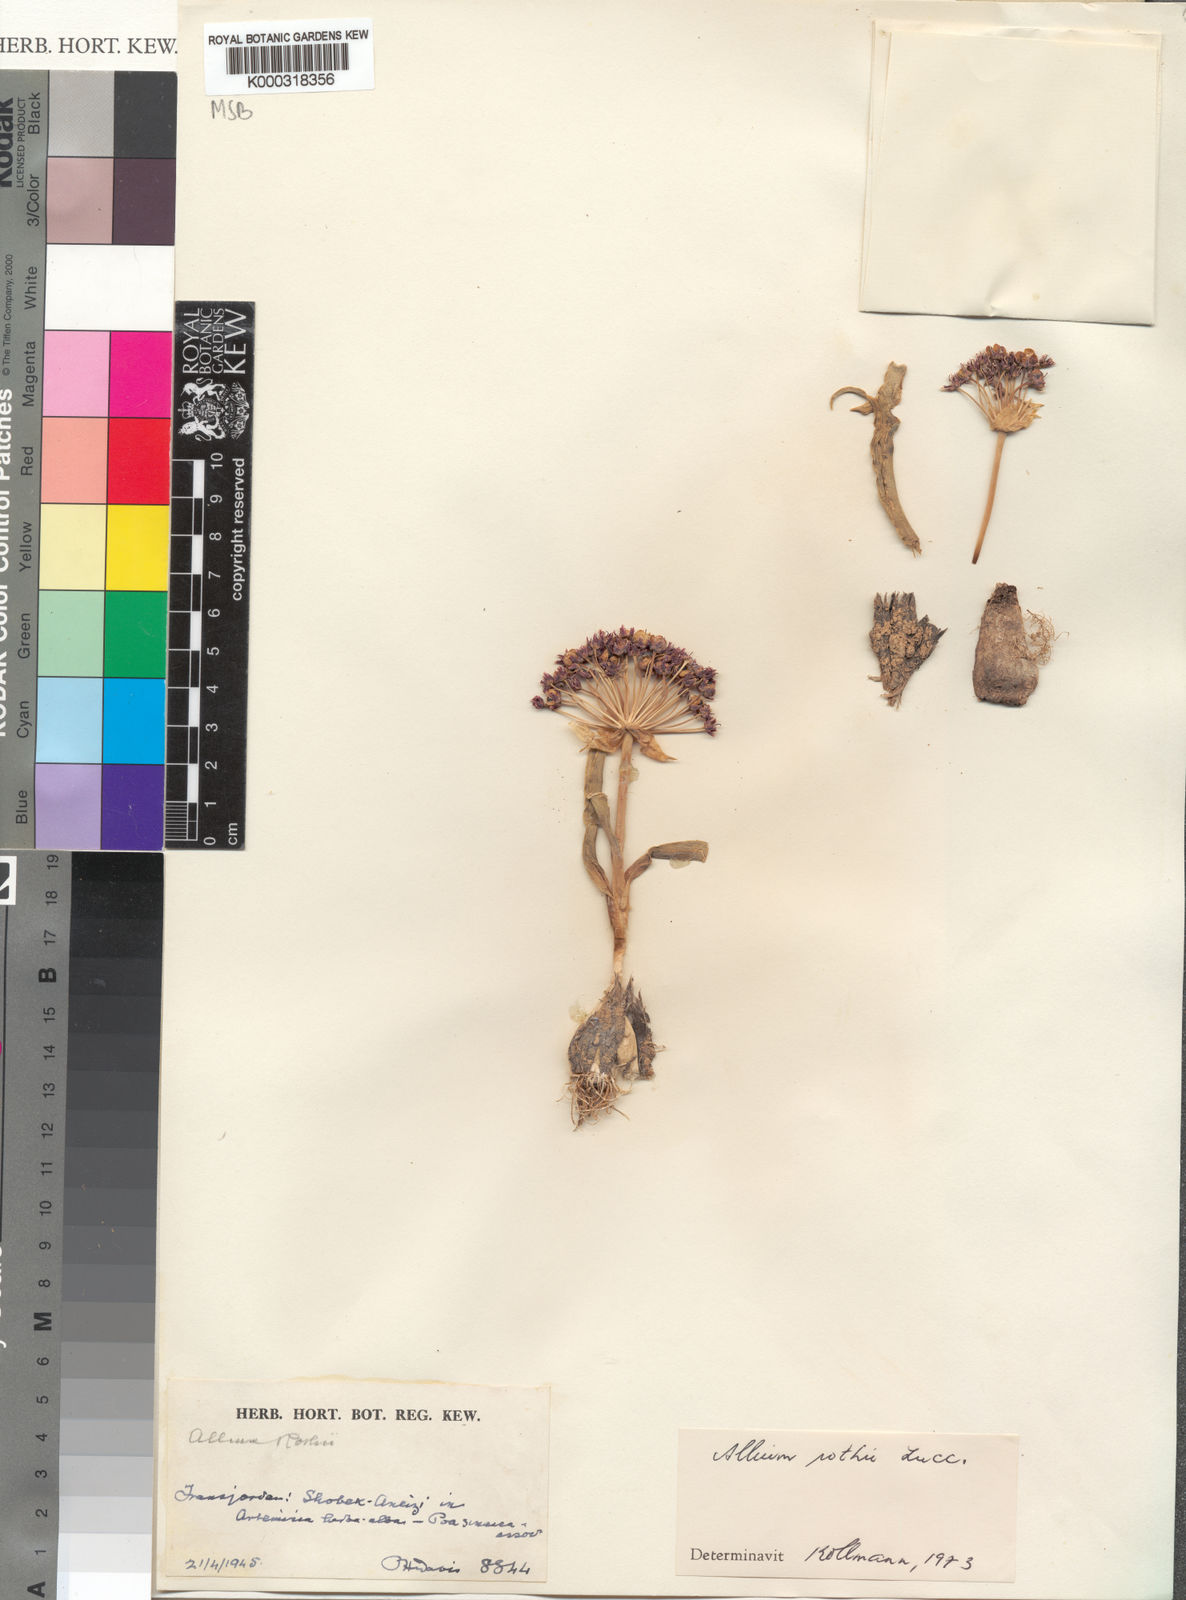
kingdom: Plantae
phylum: Tracheophyta
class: Liliopsida
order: Asparagales
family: Amaryllidaceae
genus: Allium
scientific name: Allium rothii
